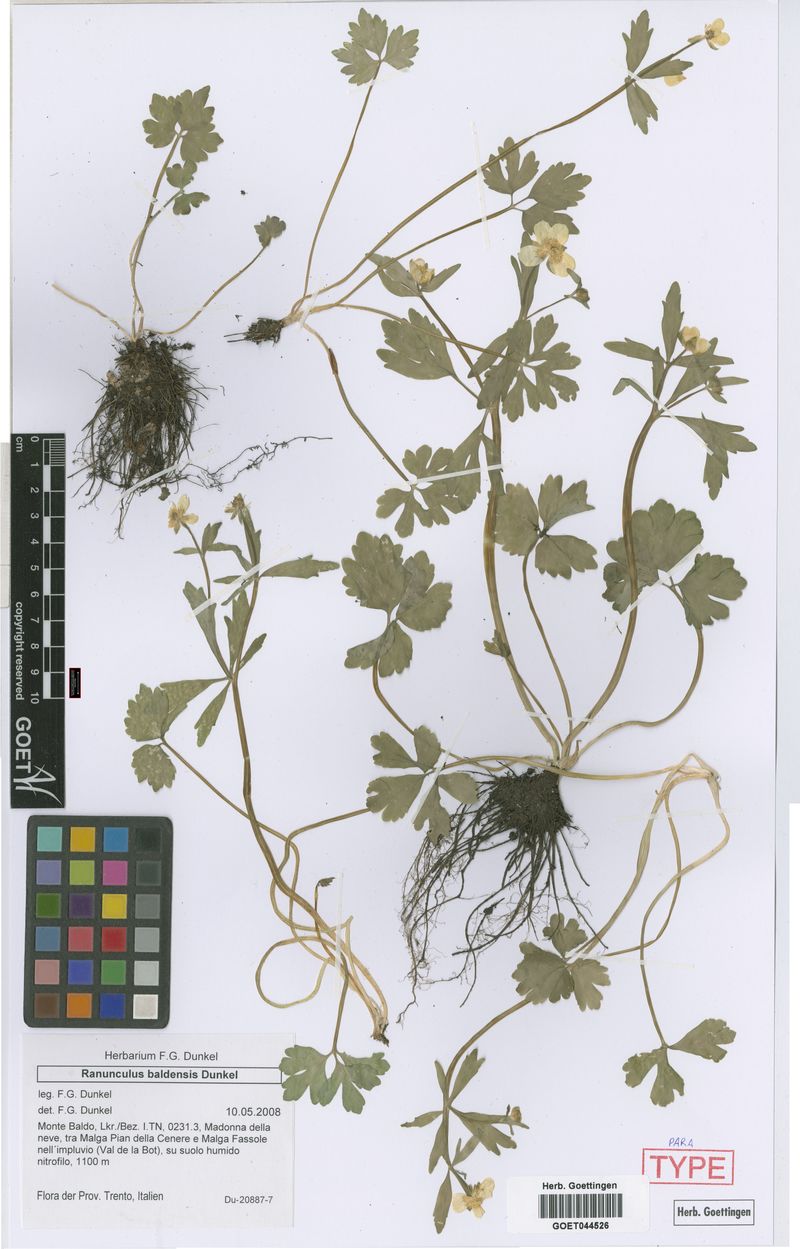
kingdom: Plantae
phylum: Tracheophyta
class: Magnoliopsida
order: Ranunculales
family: Ranunculaceae
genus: Ranunculus
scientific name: Ranunculus baldensis
